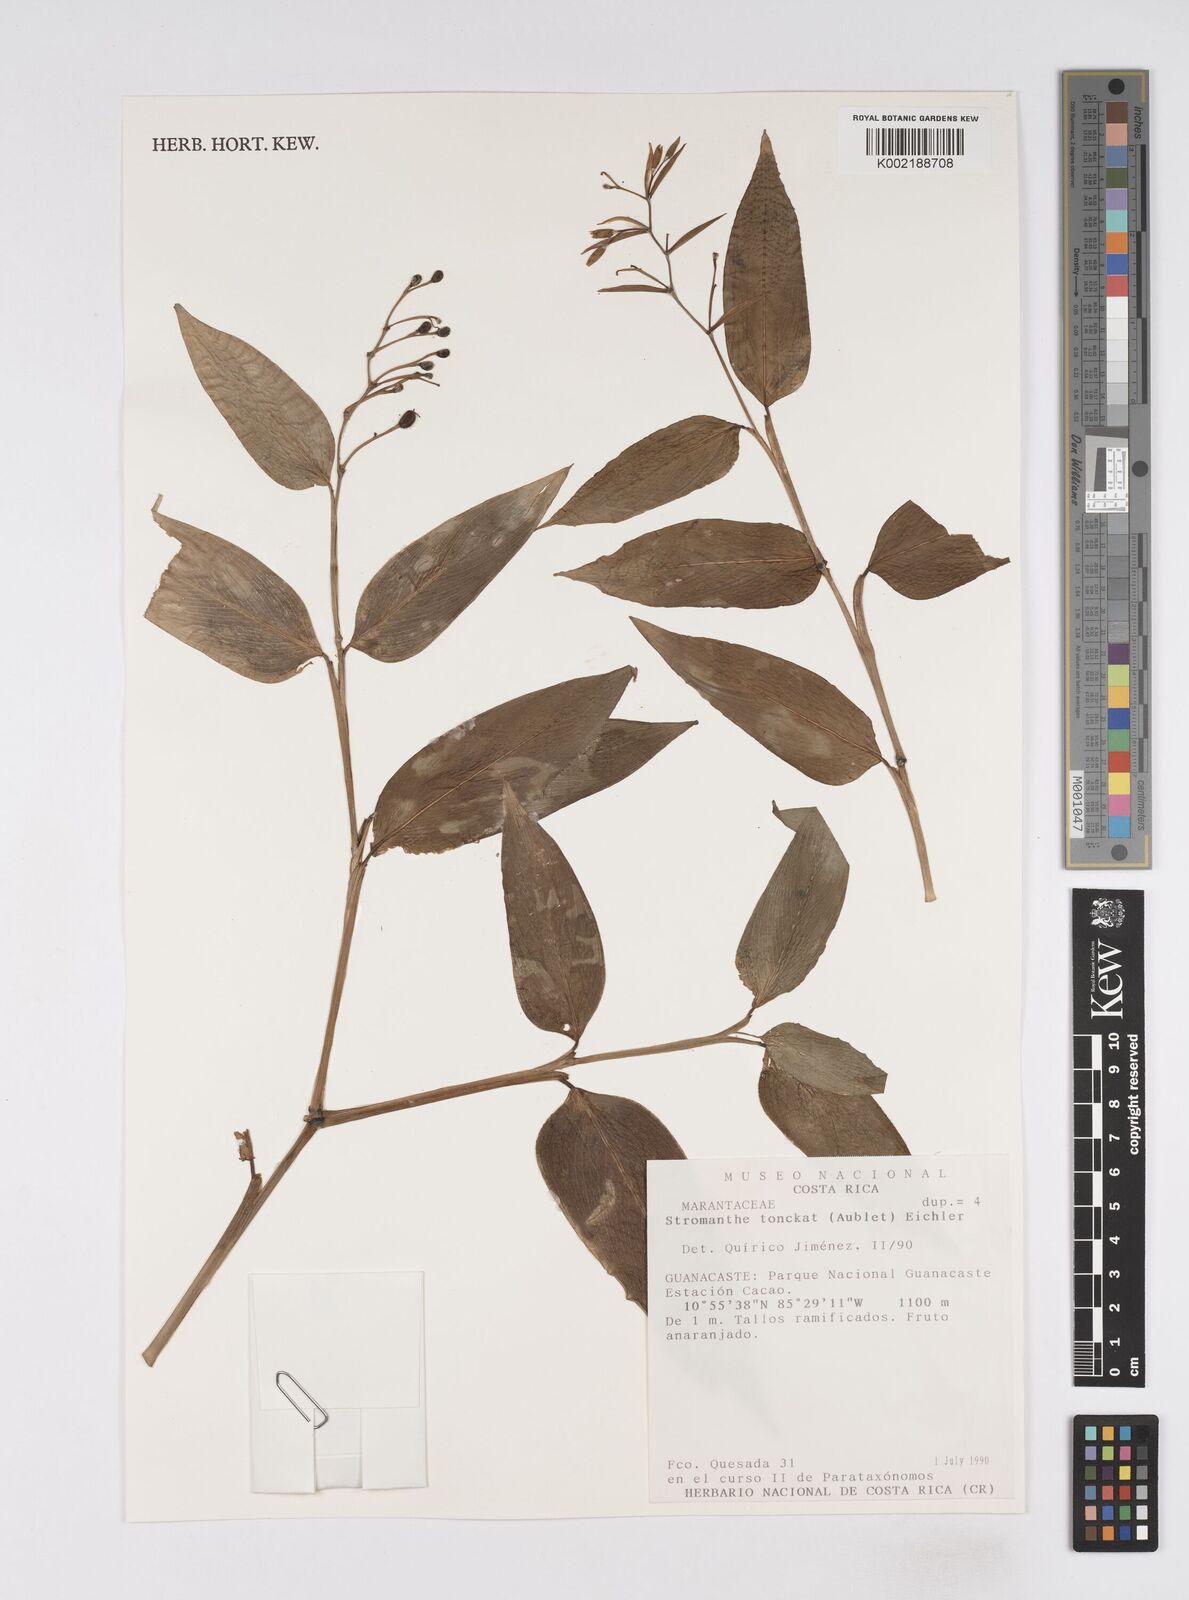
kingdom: Plantae
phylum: Tracheophyta
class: Liliopsida
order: Zingiberales
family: Marantaceae
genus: Stromanthe
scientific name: Stromanthe tonckat
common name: Stromanthe
